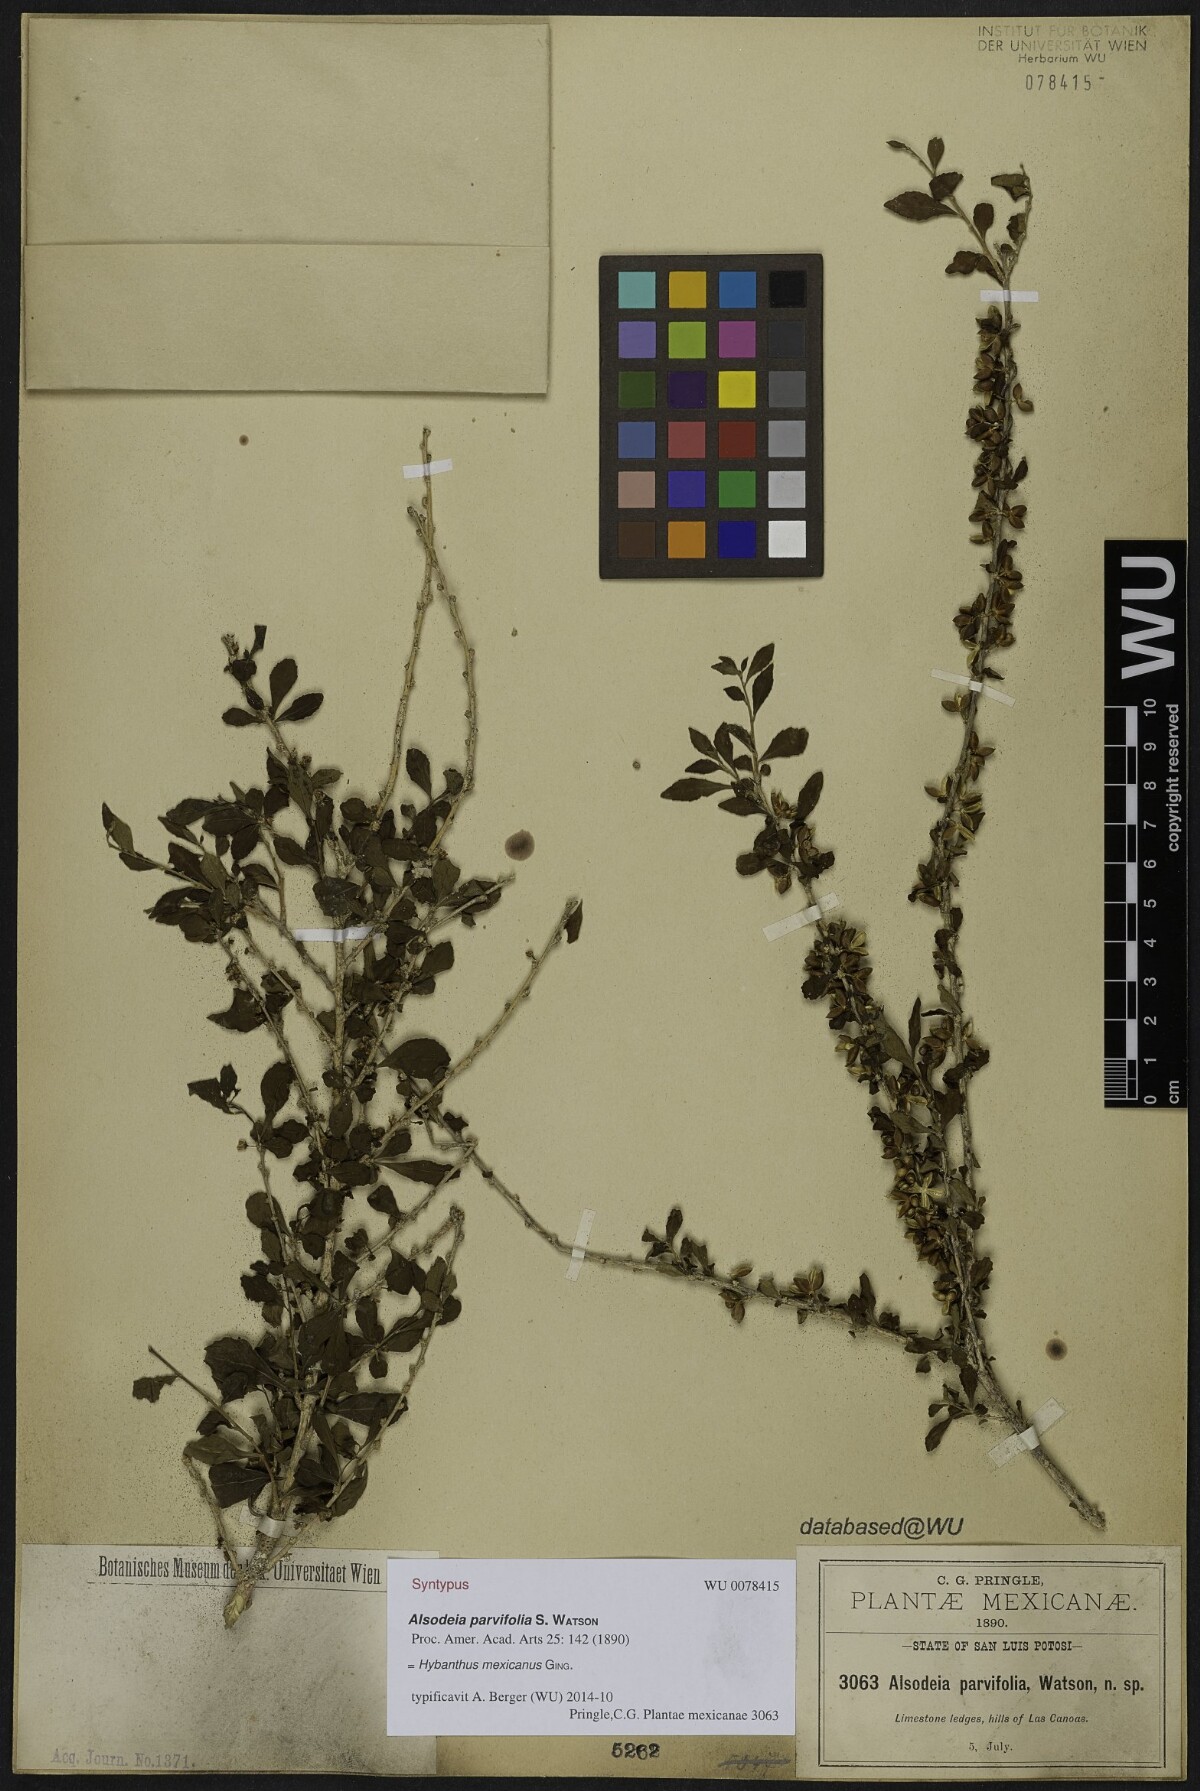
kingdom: Plantae
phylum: Tracheophyta
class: Magnoliopsida
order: Malpighiales
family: Violaceae
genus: Rinorea
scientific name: Rinorea Alsodeia parvifolia
